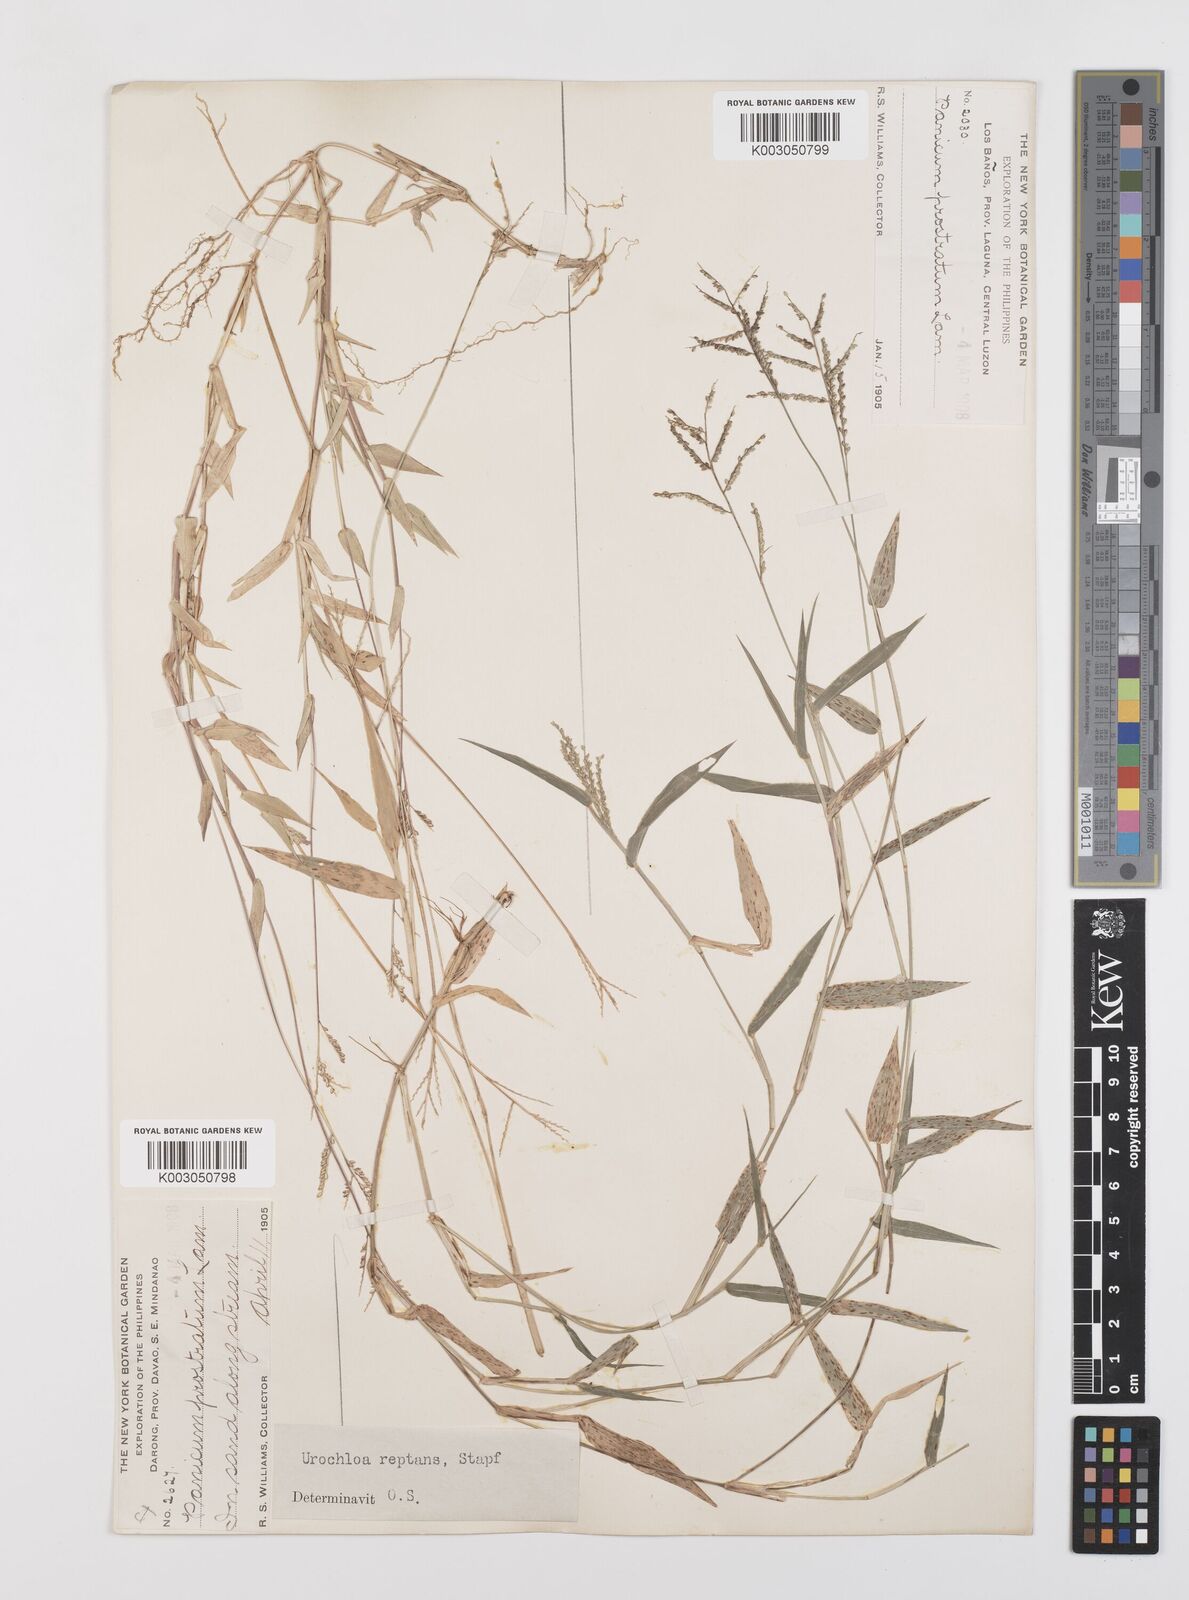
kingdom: Plantae
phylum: Tracheophyta
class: Liliopsida
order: Poales
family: Poaceae
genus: Urochloa
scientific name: Urochloa reptans
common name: Sprawling signalgrass
